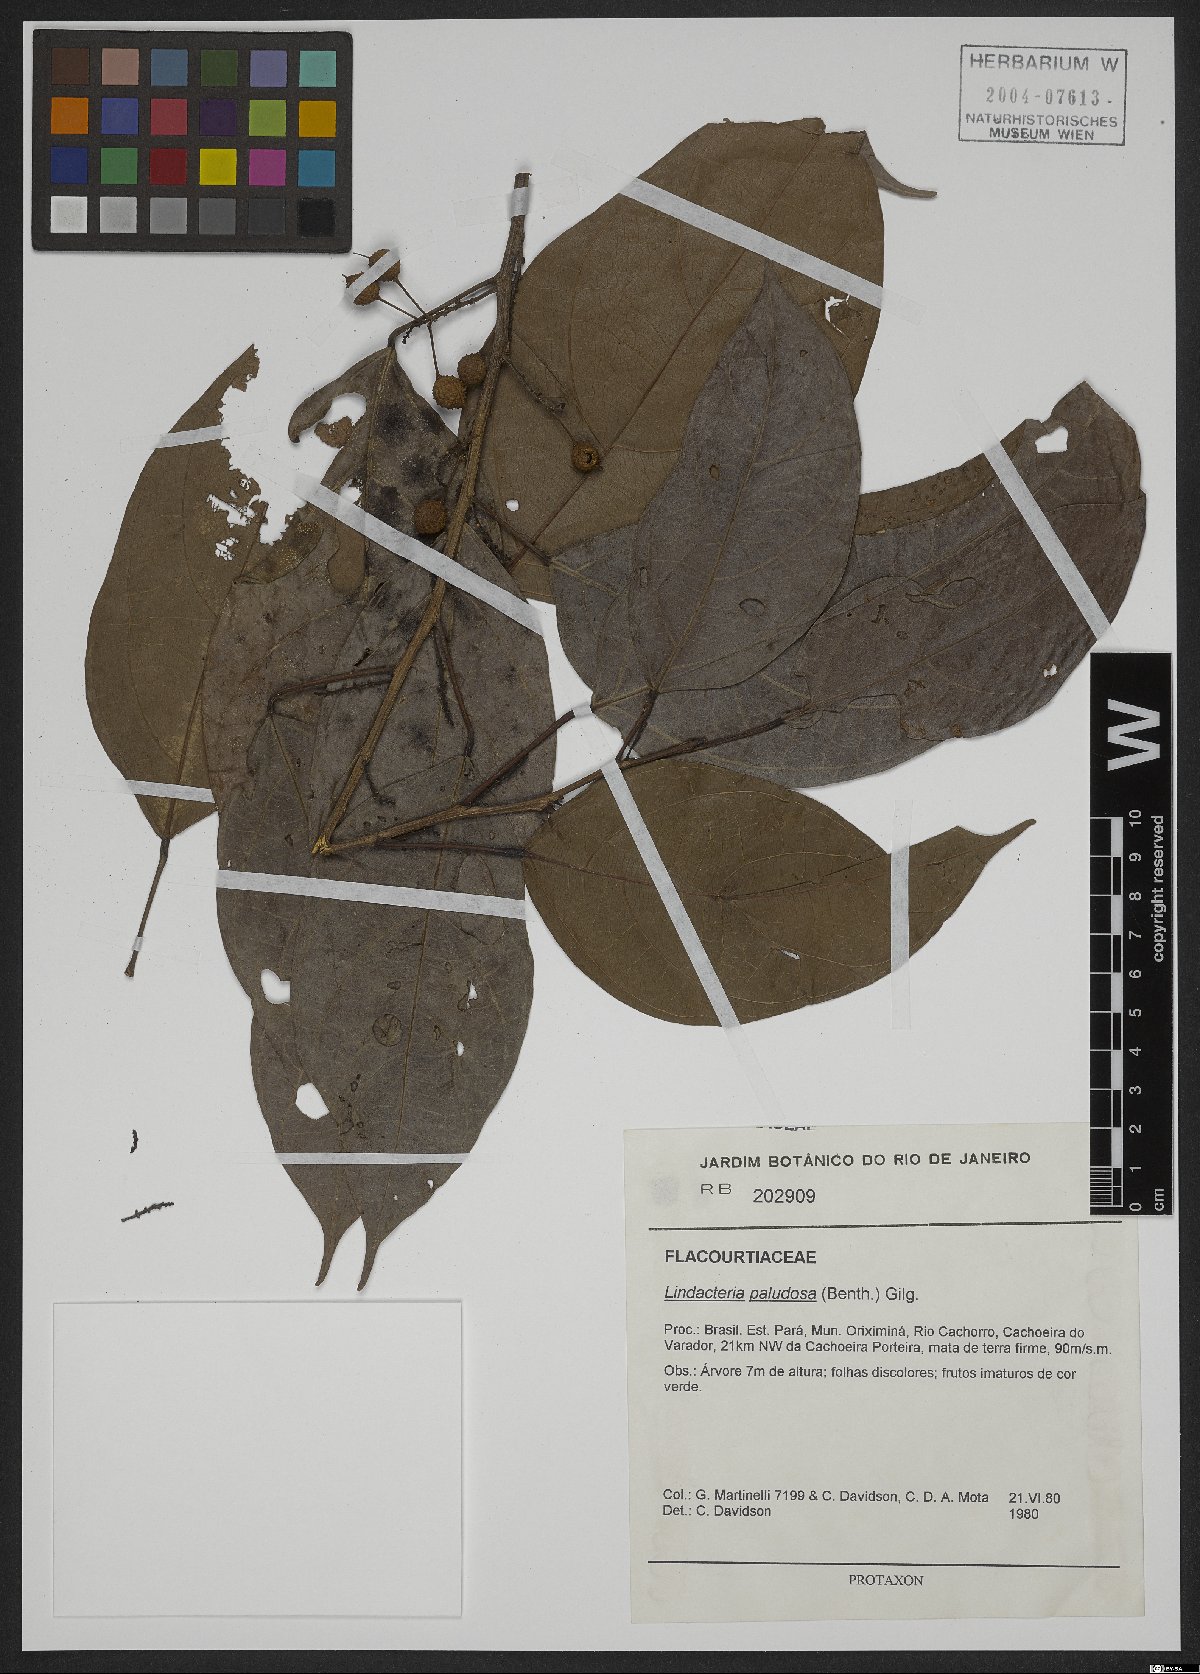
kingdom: Plantae
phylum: Tracheophyta
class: Magnoliopsida
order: Malpighiales
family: Achariaceae
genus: Lindackeria
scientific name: Lindackeria paludosa
